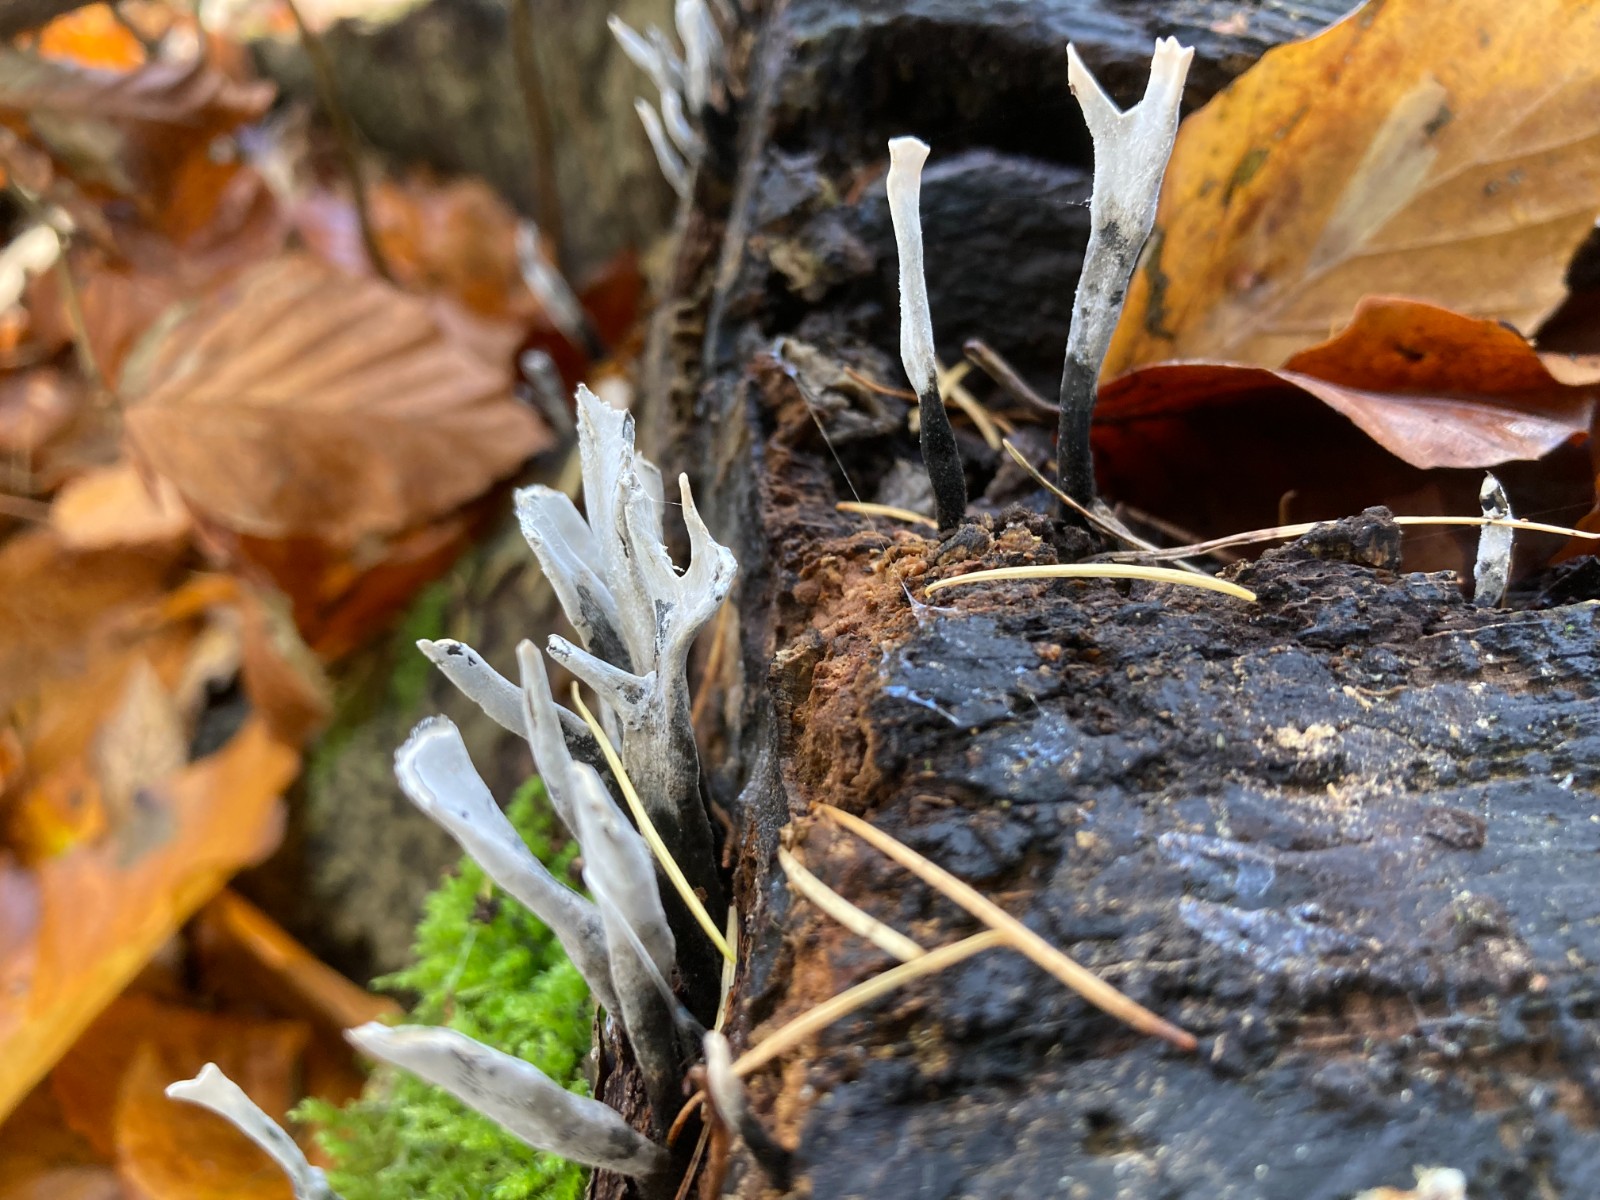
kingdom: Fungi
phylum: Ascomycota
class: Sordariomycetes
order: Xylariales
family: Xylariaceae
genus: Xylaria
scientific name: Xylaria hypoxylon
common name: grenet stødsvamp
